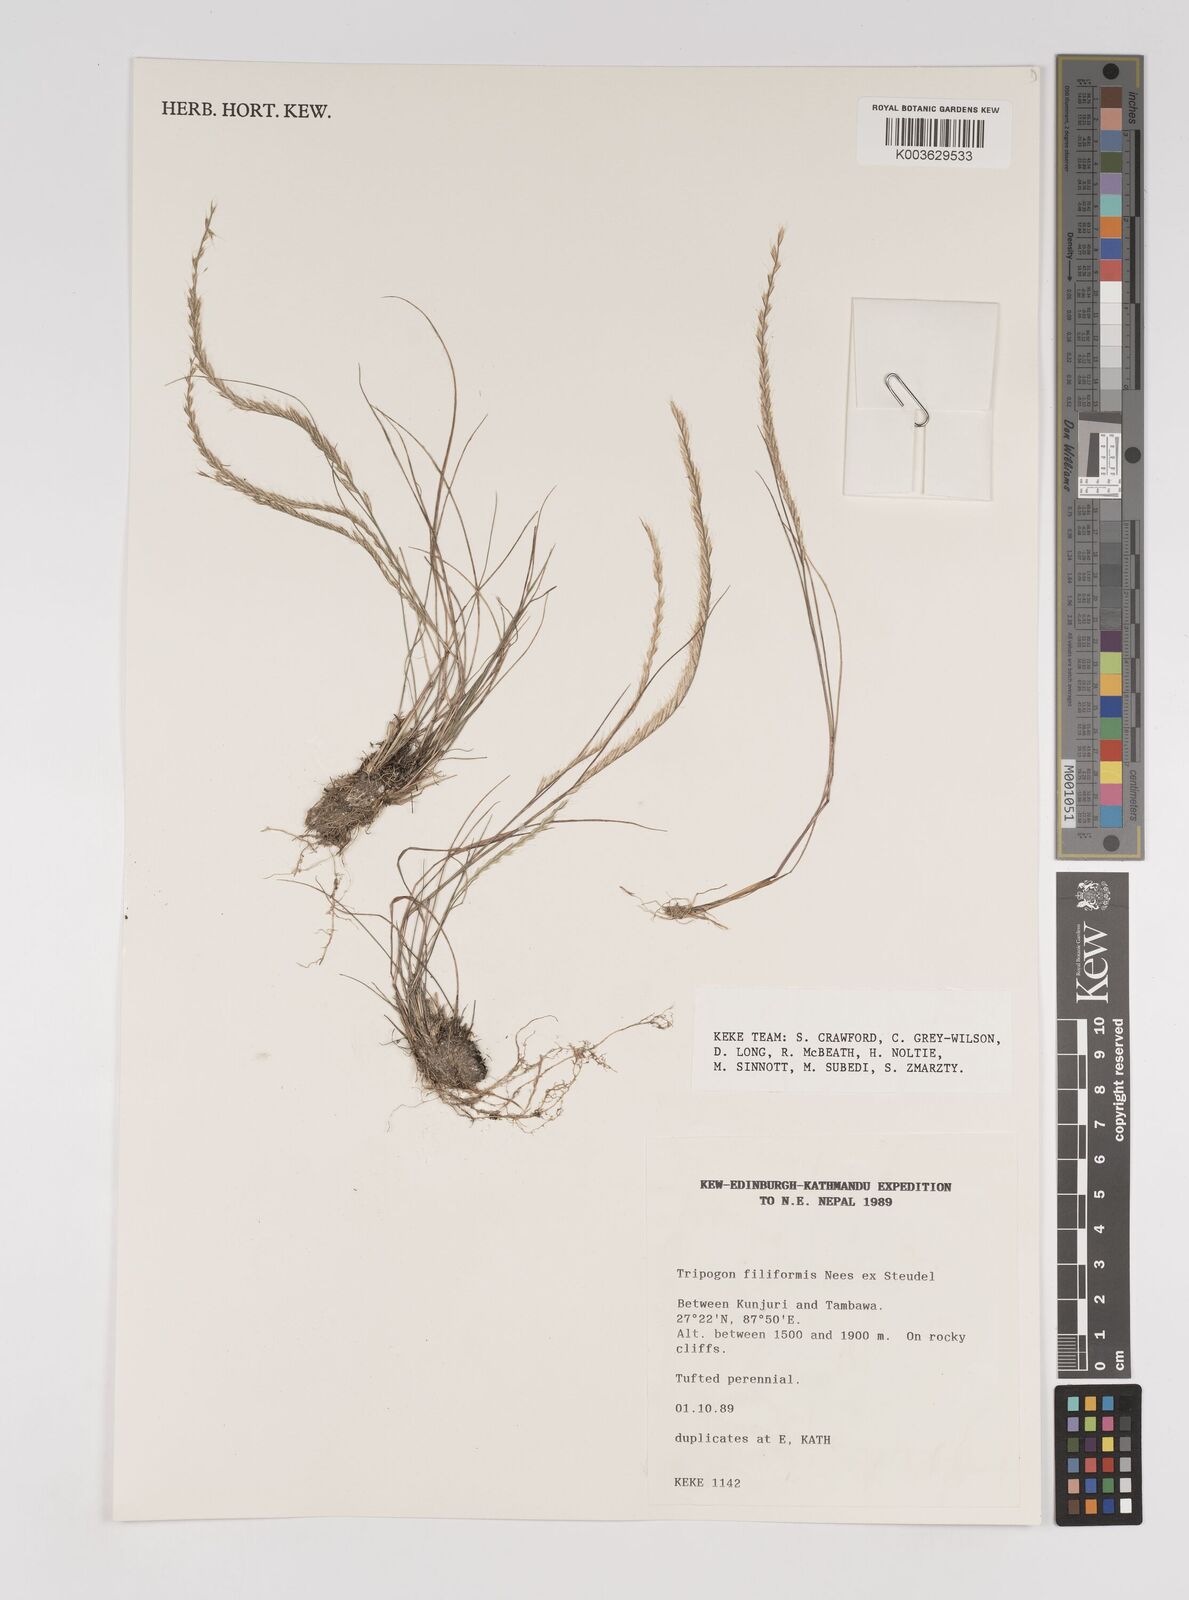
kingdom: Plantae
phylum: Tracheophyta
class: Liliopsida
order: Poales
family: Poaceae
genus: Tripogon
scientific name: Tripogon filiformis
